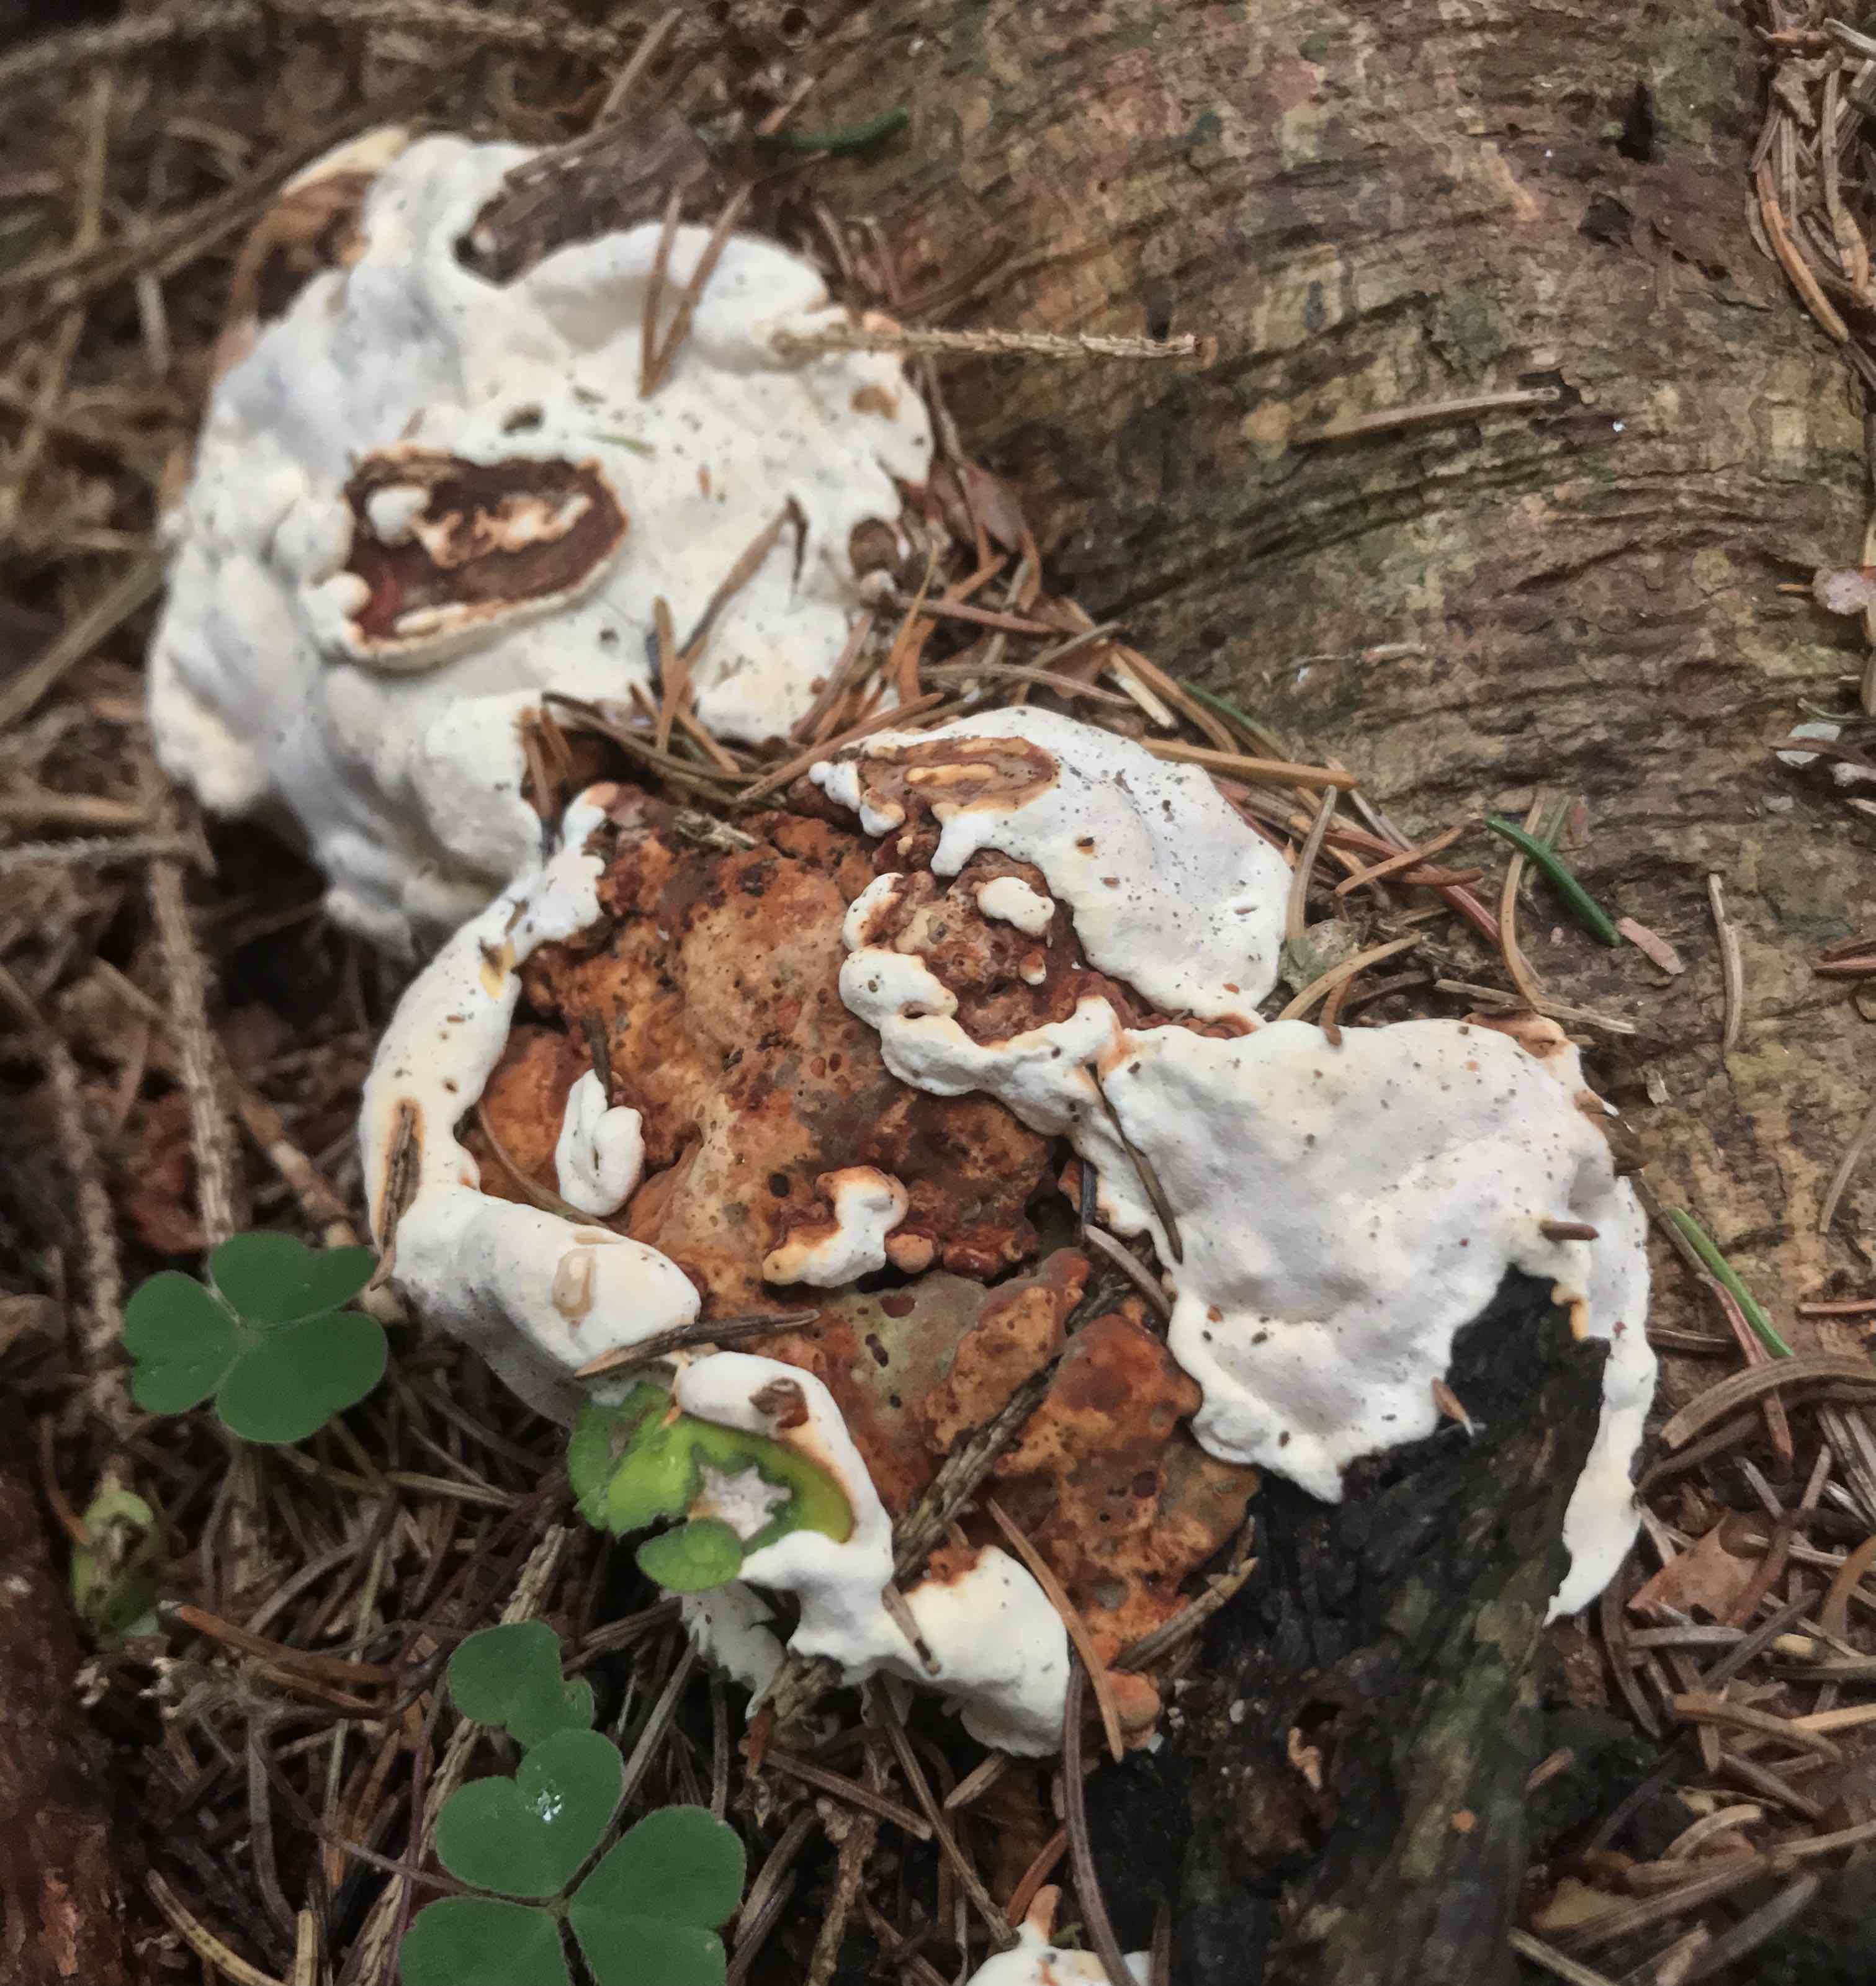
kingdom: Fungi
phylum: Basidiomycota
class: Agaricomycetes
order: Russulales
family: Bondarzewiaceae
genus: Heterobasidion
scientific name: Heterobasidion annosum
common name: almindelig rodfordærver
